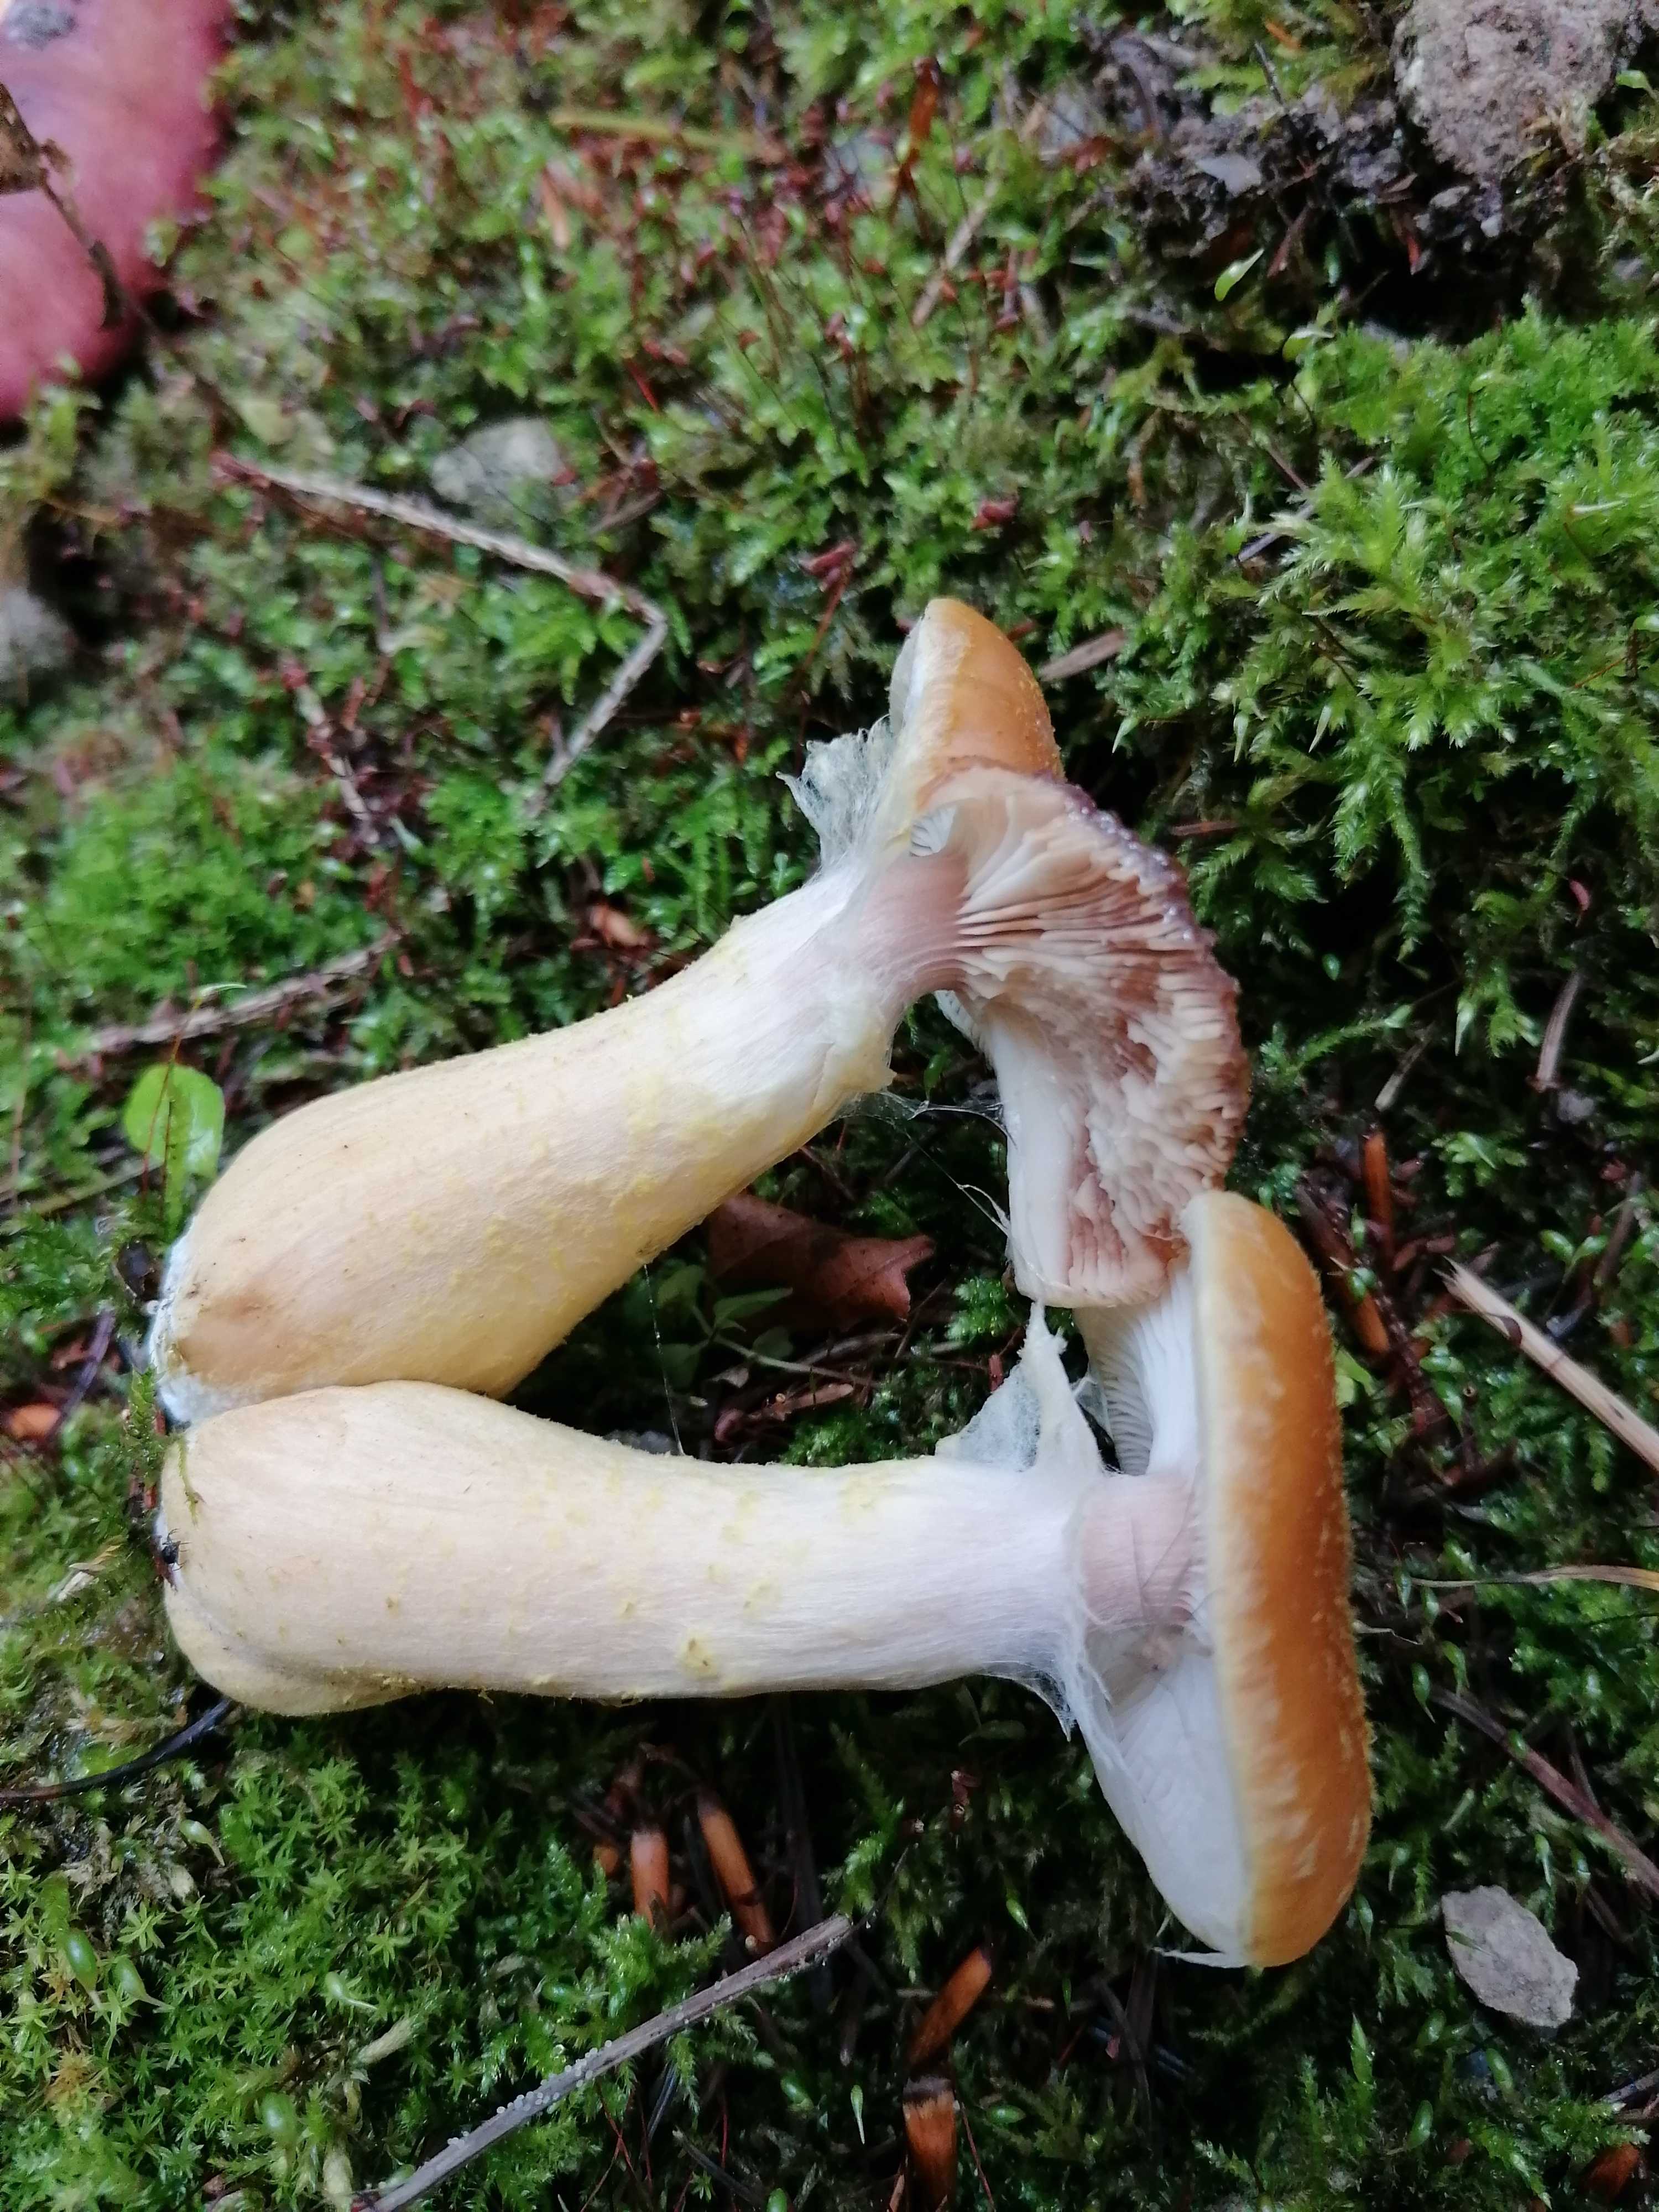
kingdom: Fungi
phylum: Basidiomycota
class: Agaricomycetes
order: Agaricales
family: Physalacriaceae
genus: Armillaria
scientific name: Armillaria lutea
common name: køllestokket honningsvamp
